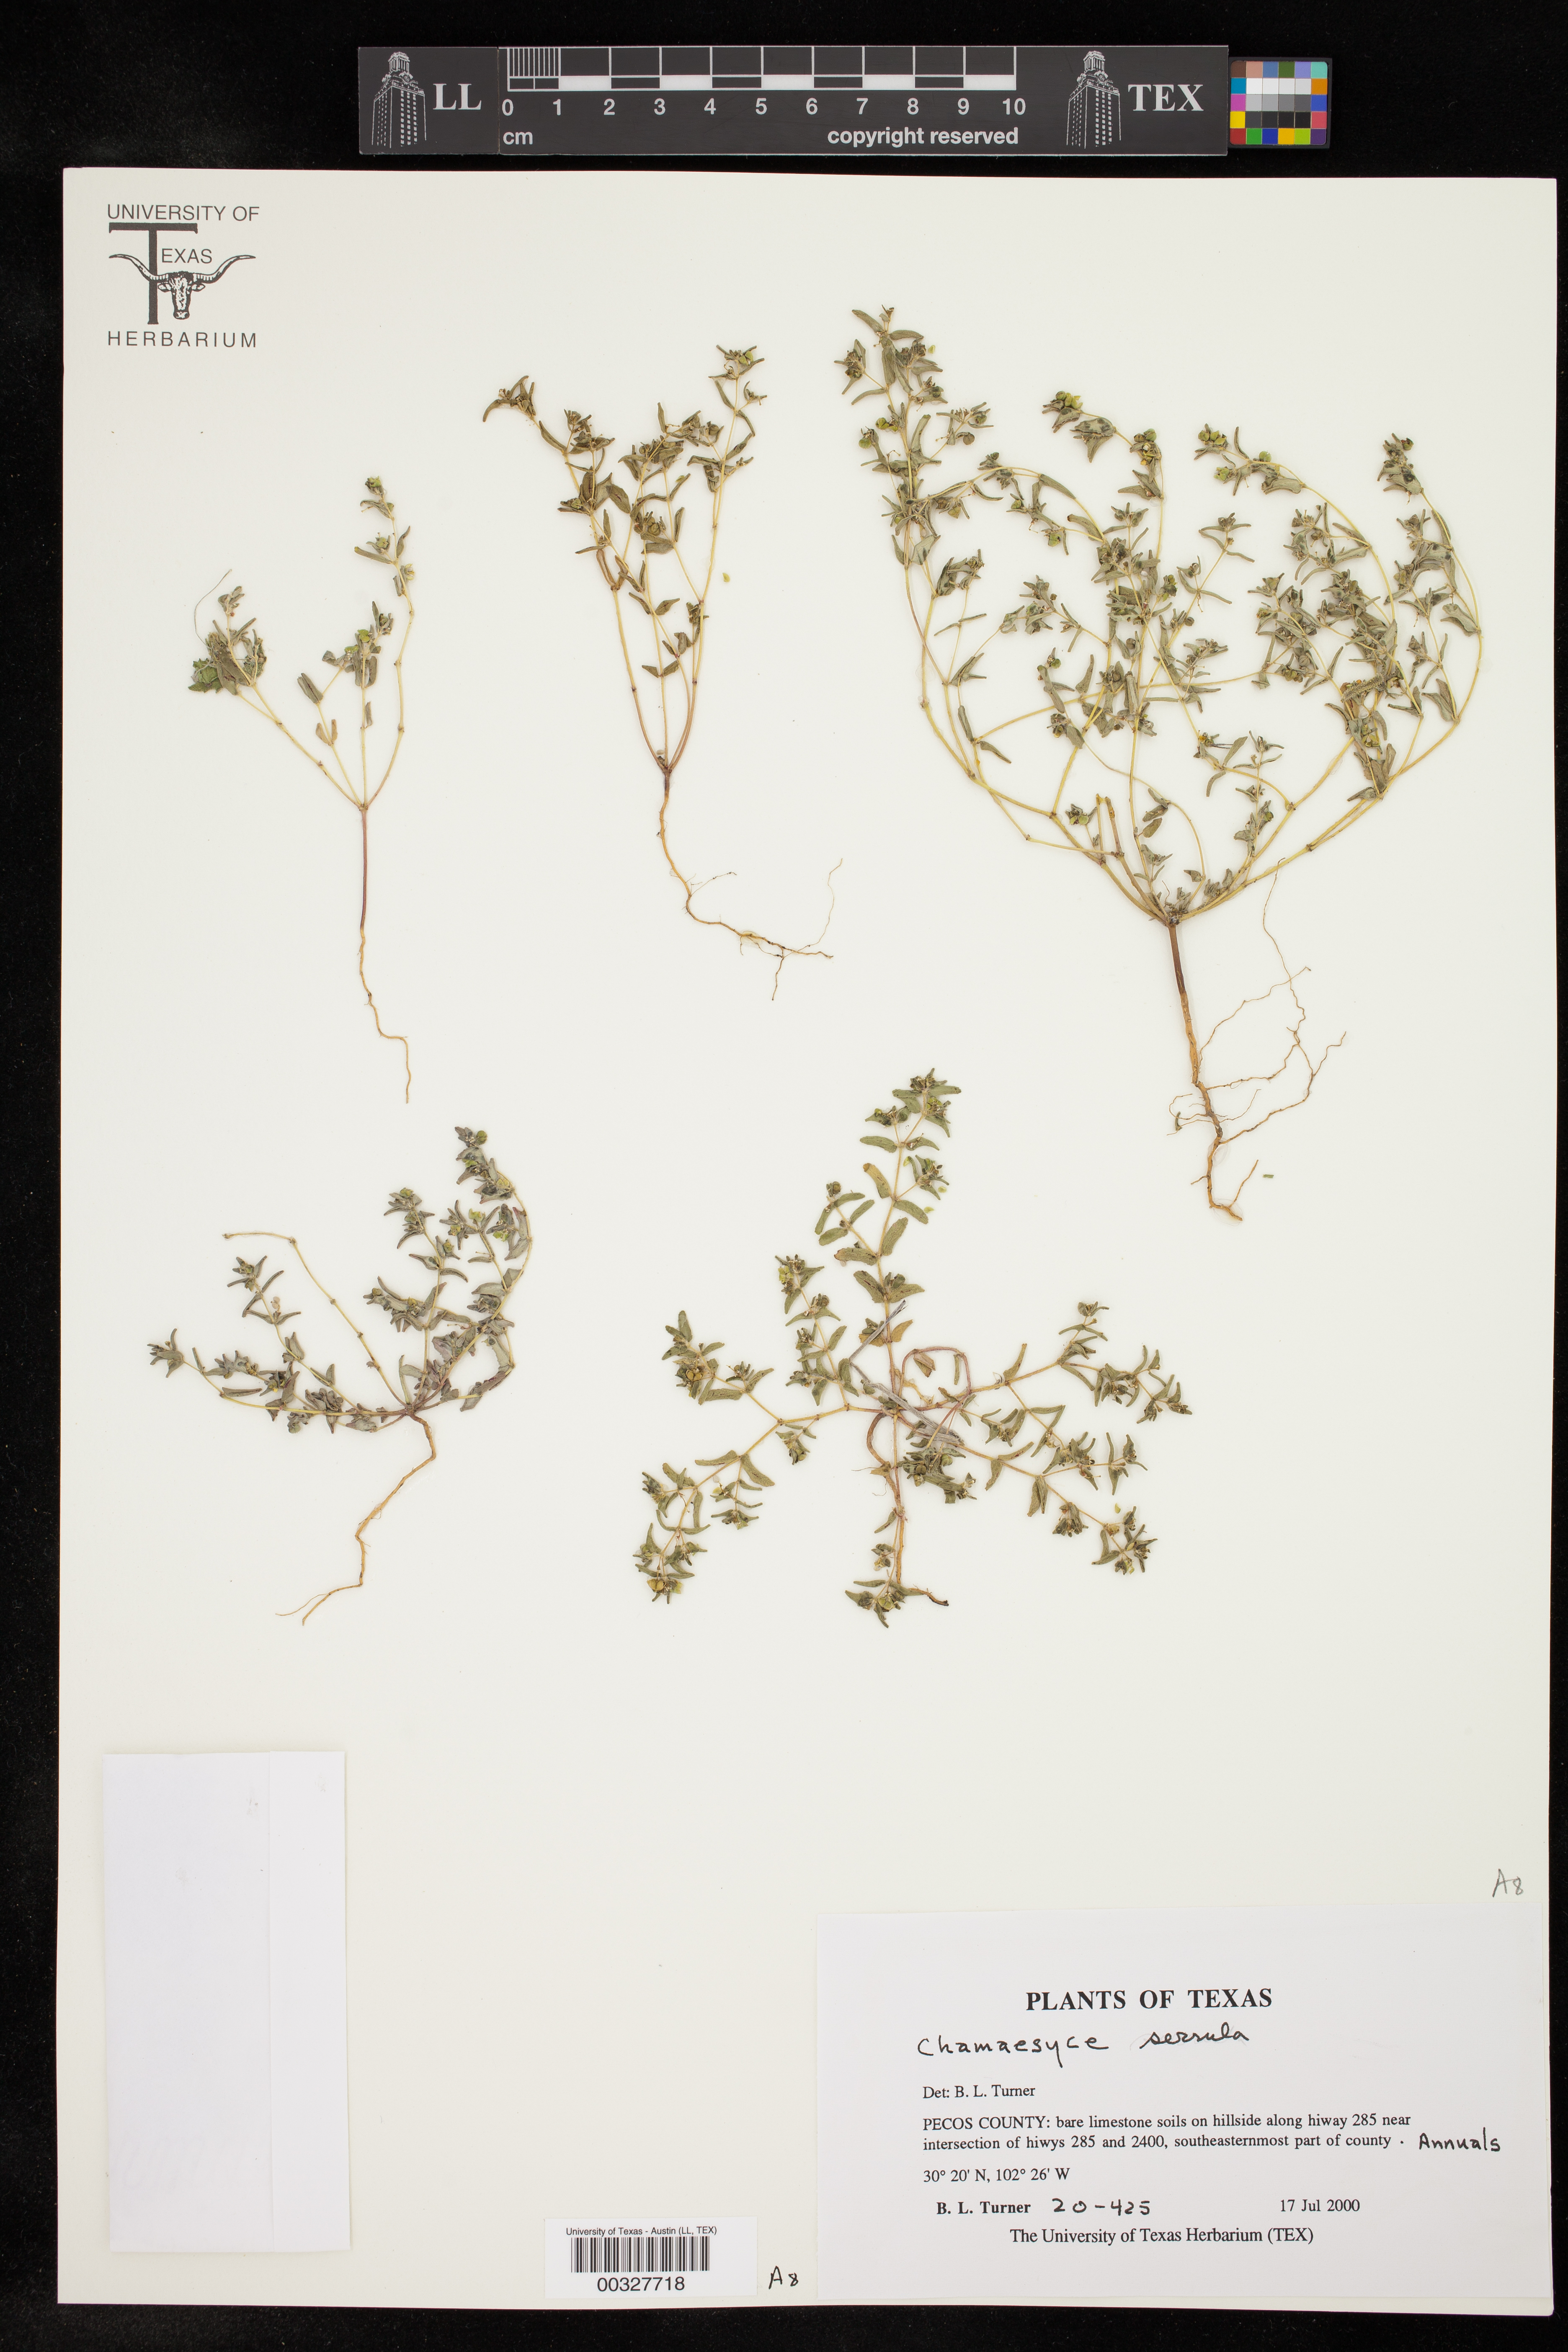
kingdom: Plantae
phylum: Tracheophyta
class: Magnoliopsida
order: Malpighiales
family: Euphorbiaceae
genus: Euphorbia
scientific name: Euphorbia serrula
